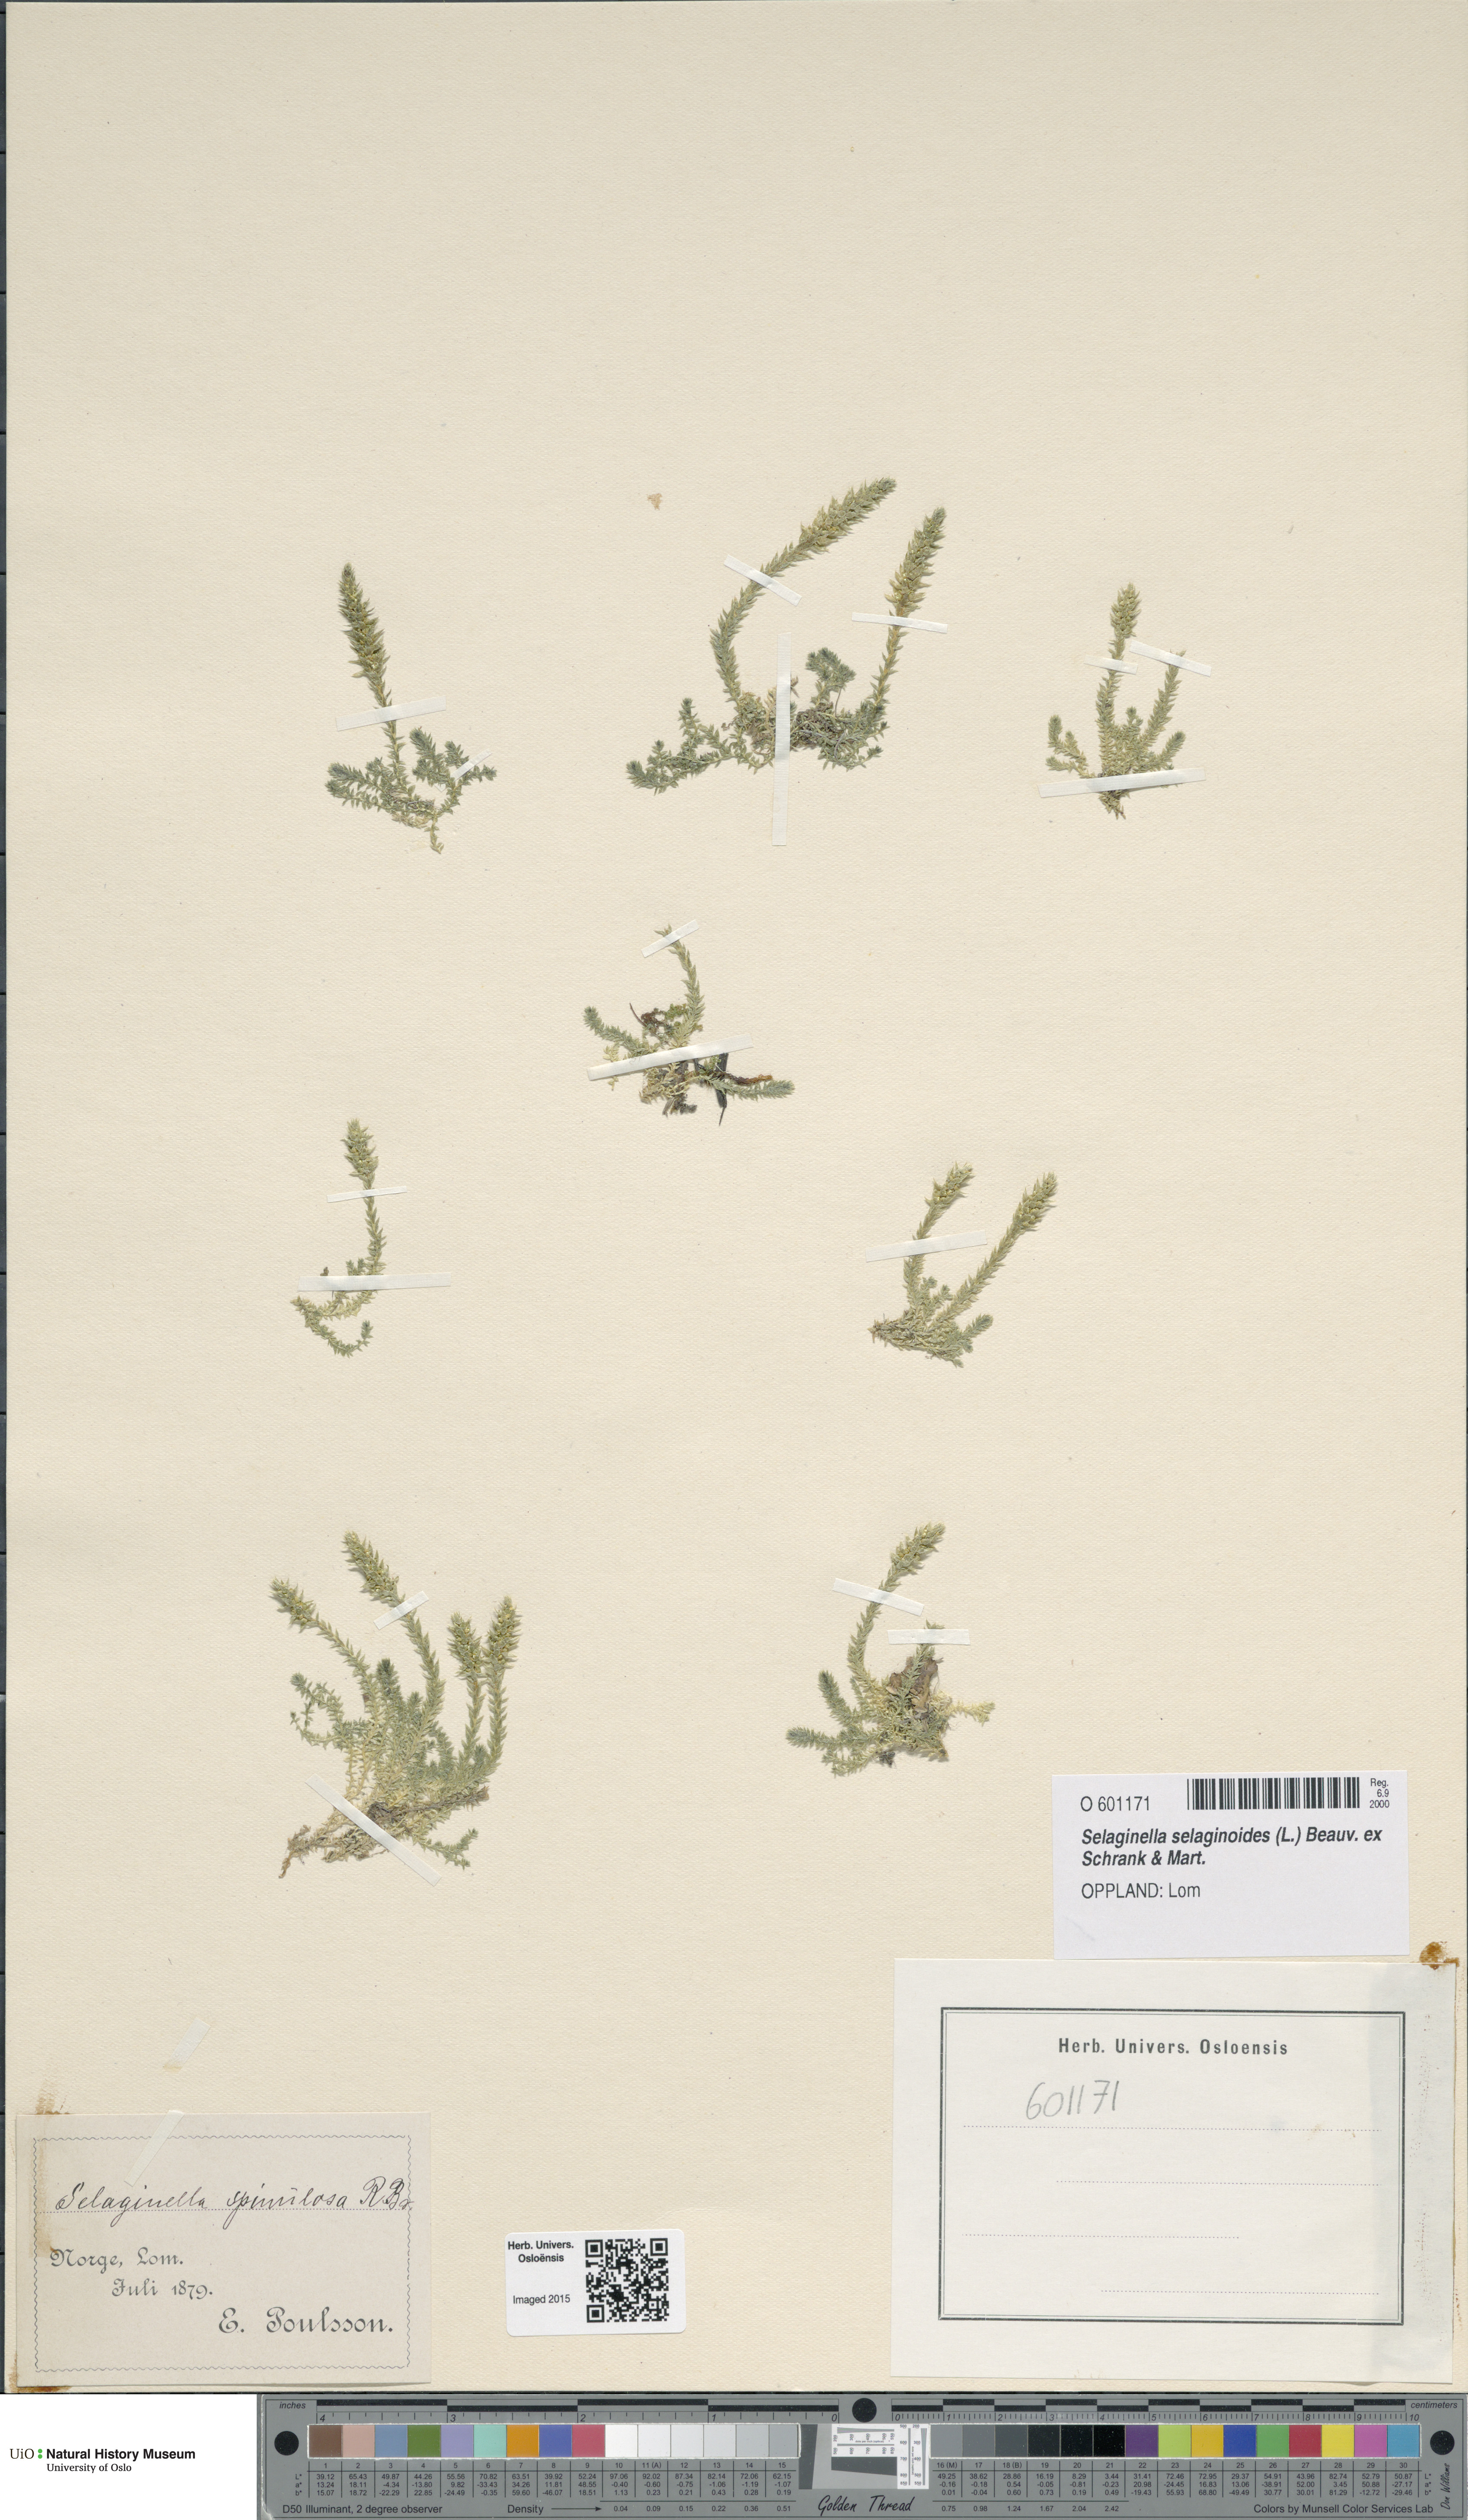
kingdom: Plantae
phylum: Tracheophyta
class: Lycopodiopsida
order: Selaginellales
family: Selaginellaceae
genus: Selaginella
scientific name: Selaginella selaginoides
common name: Prickly mountain-moss
